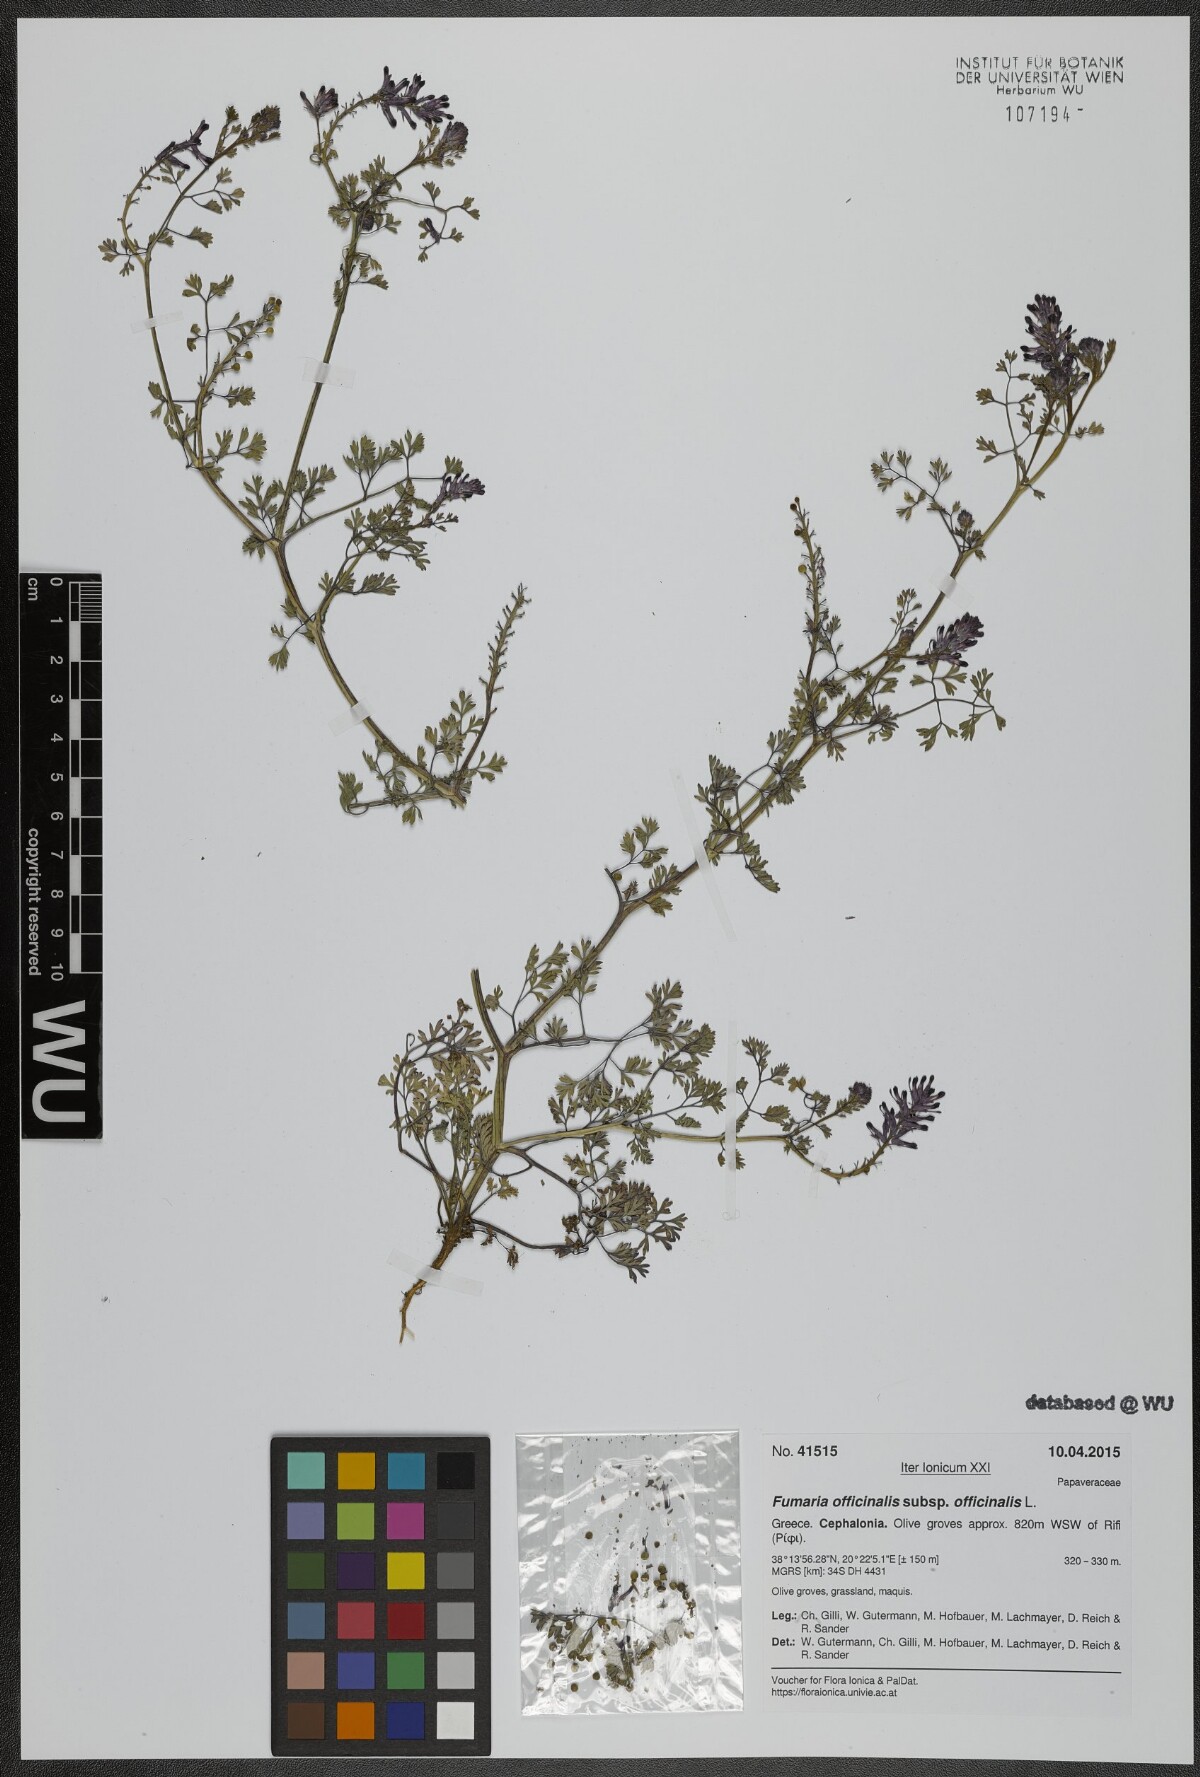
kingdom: Plantae
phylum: Tracheophyta
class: Magnoliopsida
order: Ranunculales
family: Papaveraceae
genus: Fumaria
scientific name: Fumaria officinalis
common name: Common fumitory
